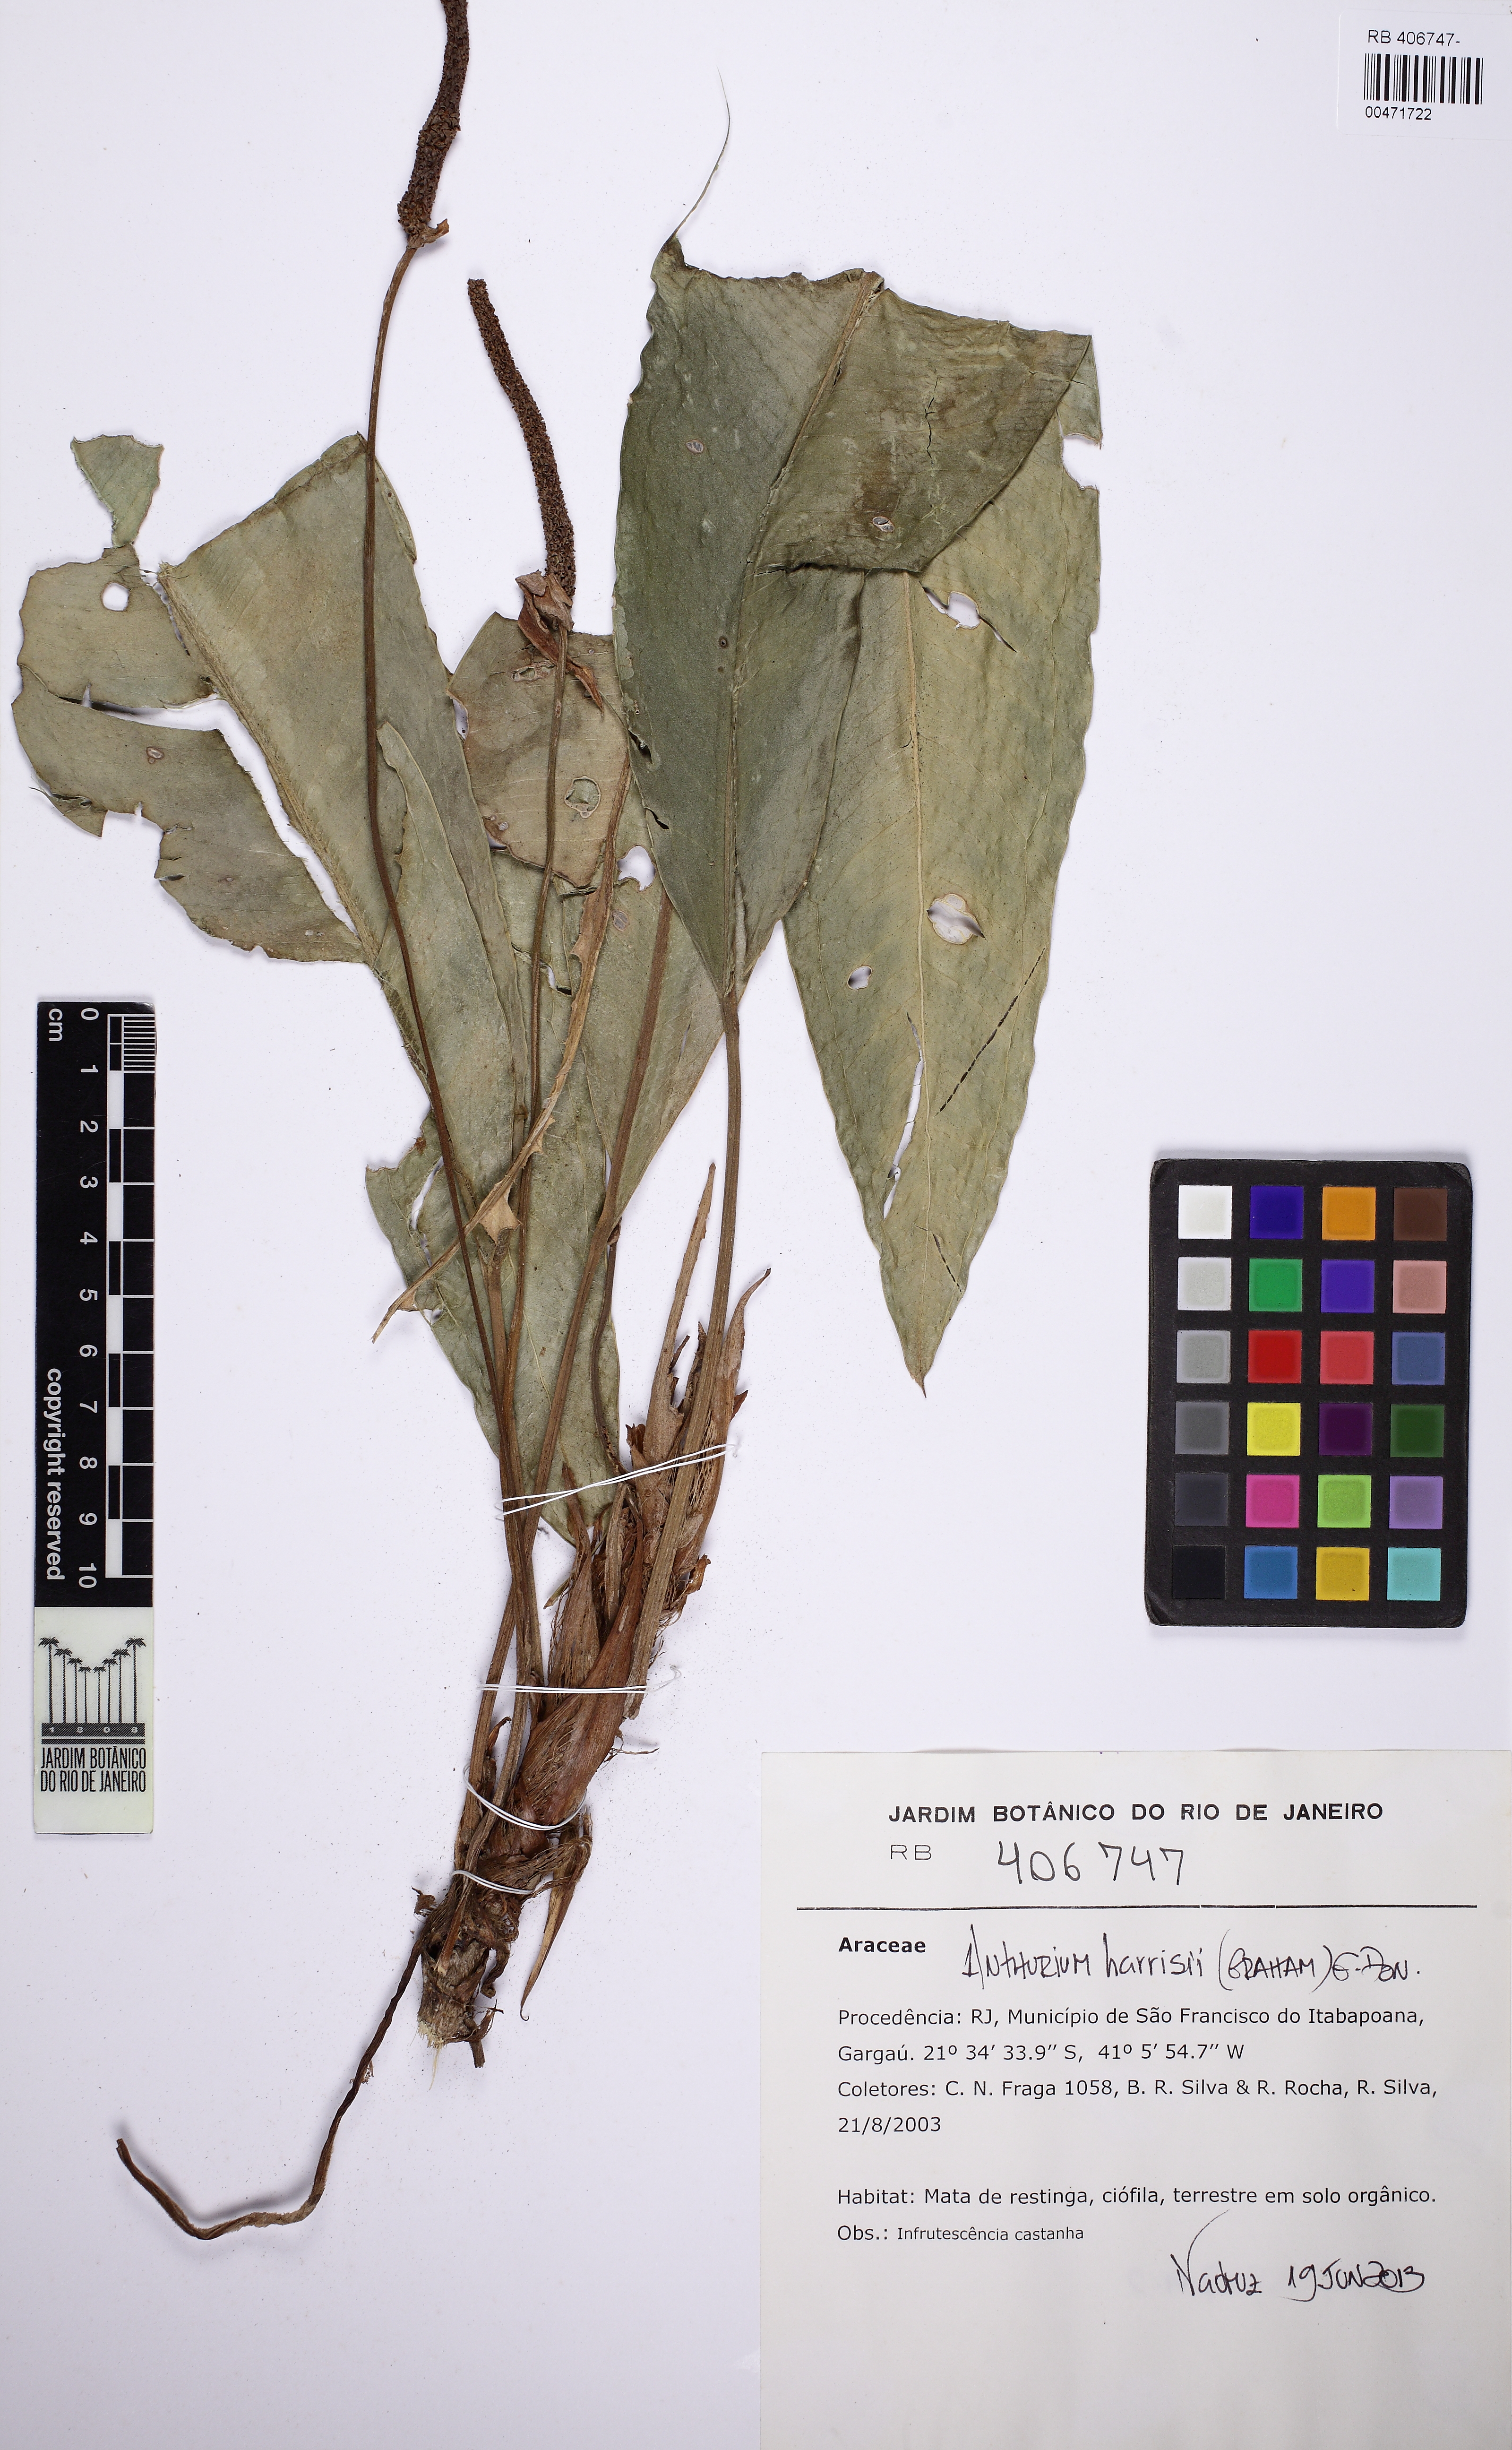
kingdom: Plantae
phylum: Tracheophyta
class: Liliopsida
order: Alismatales
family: Araceae
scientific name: Araceae
